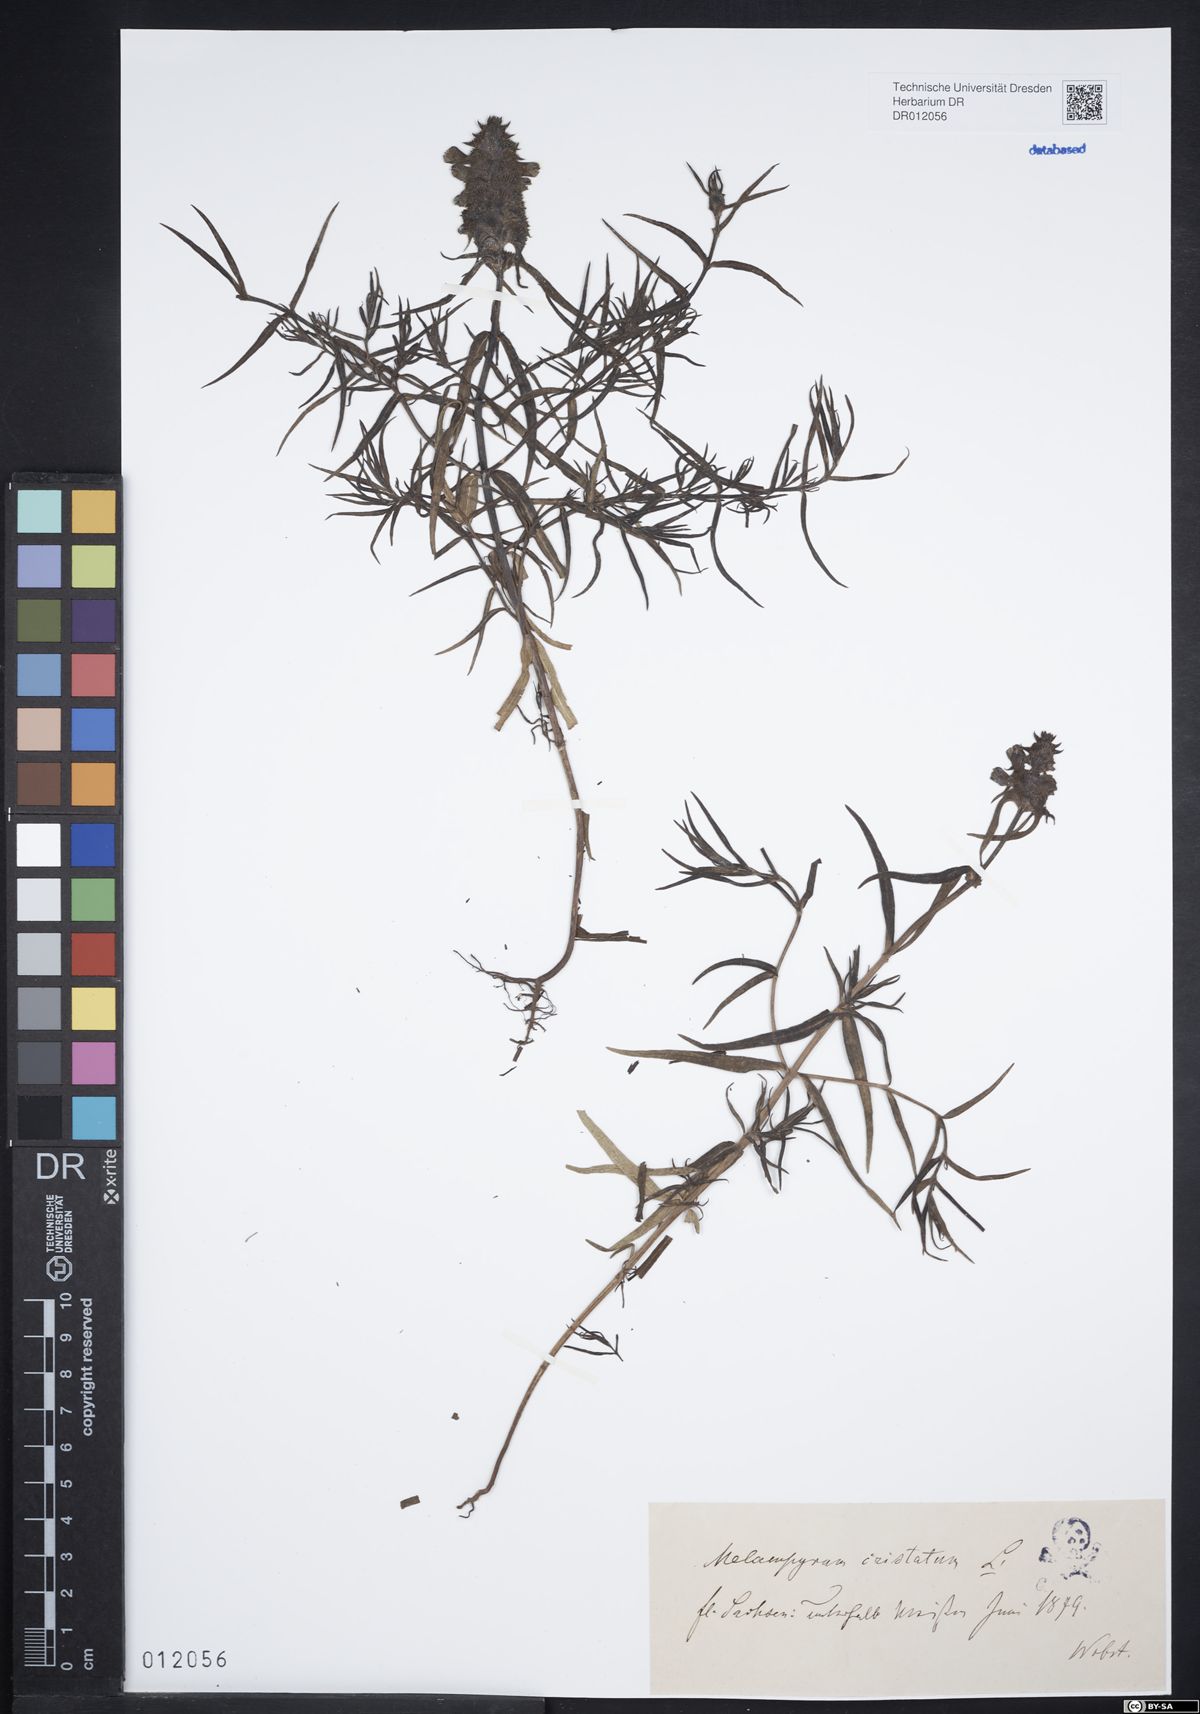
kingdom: Plantae
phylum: Tracheophyta
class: Magnoliopsida
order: Lamiales
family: Orobanchaceae
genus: Melampyrum
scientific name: Melampyrum cristatum
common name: Crested cow-wheat
